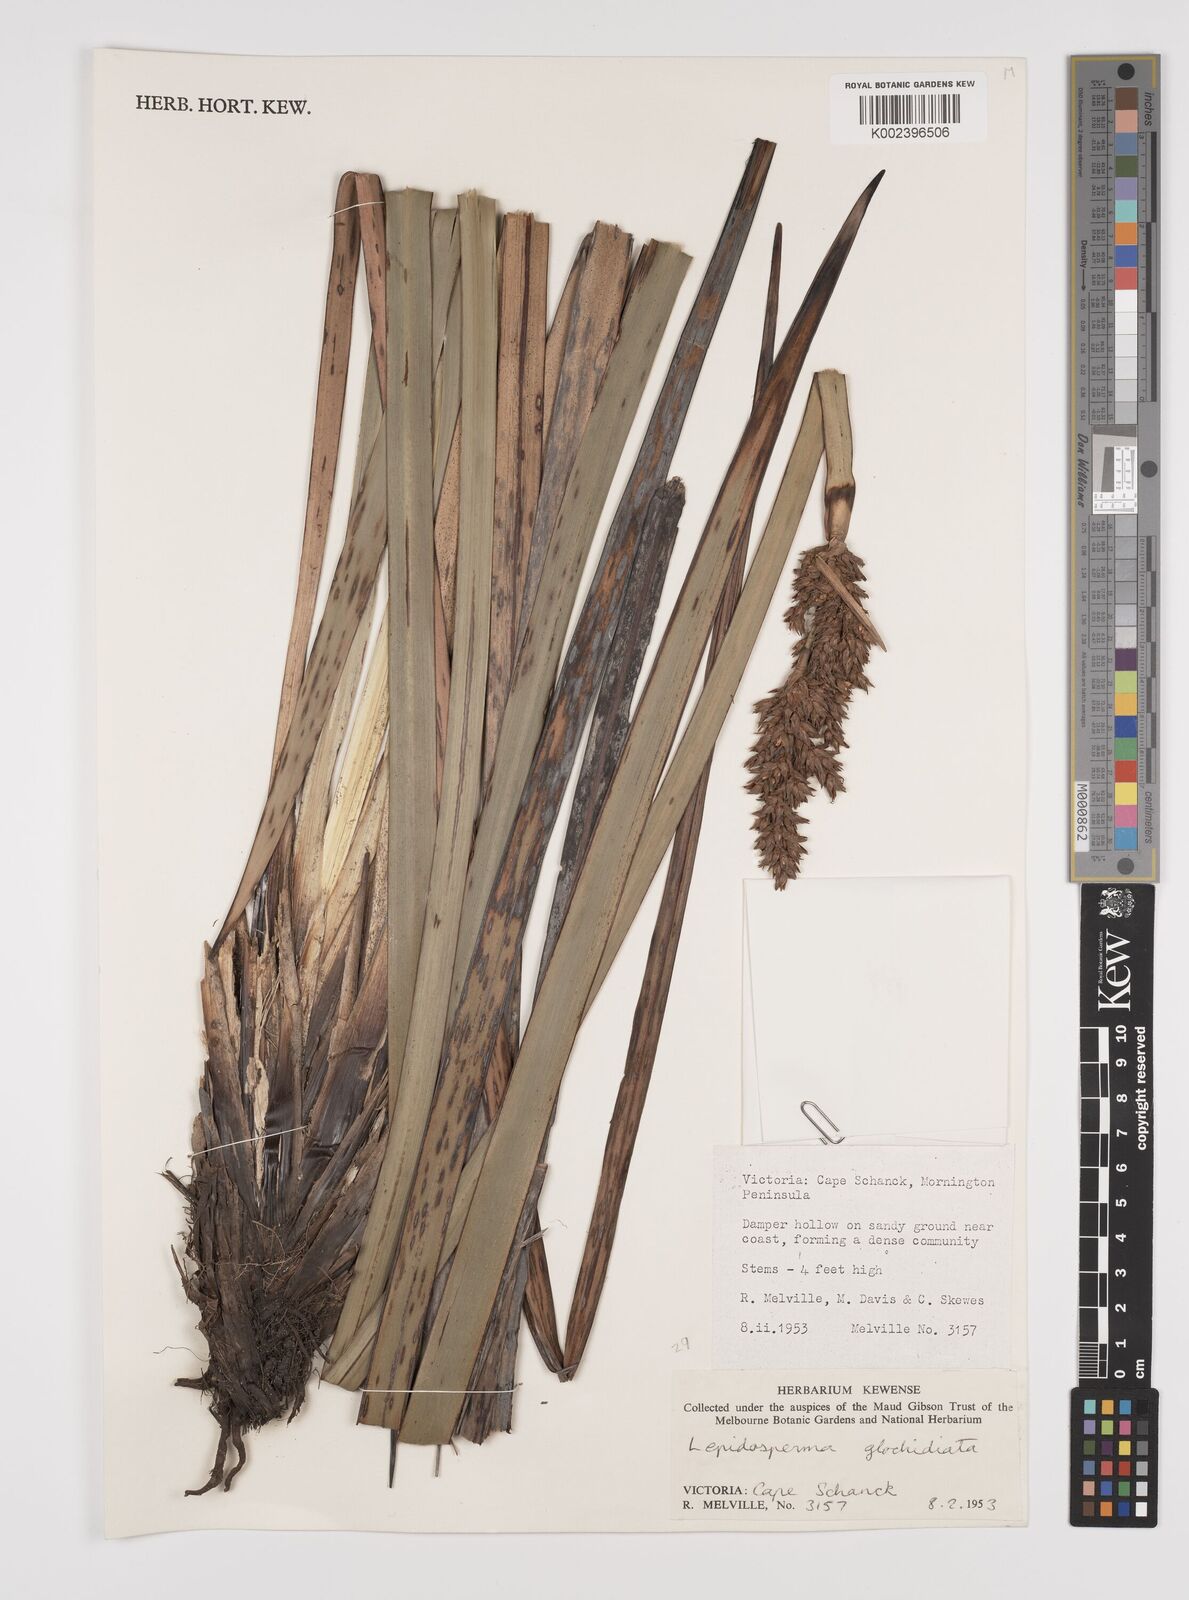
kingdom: Plantae
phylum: Tracheophyta
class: Liliopsida
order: Poales
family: Cyperaceae
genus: Lepidosperma
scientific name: Lepidosperma gladiatum
